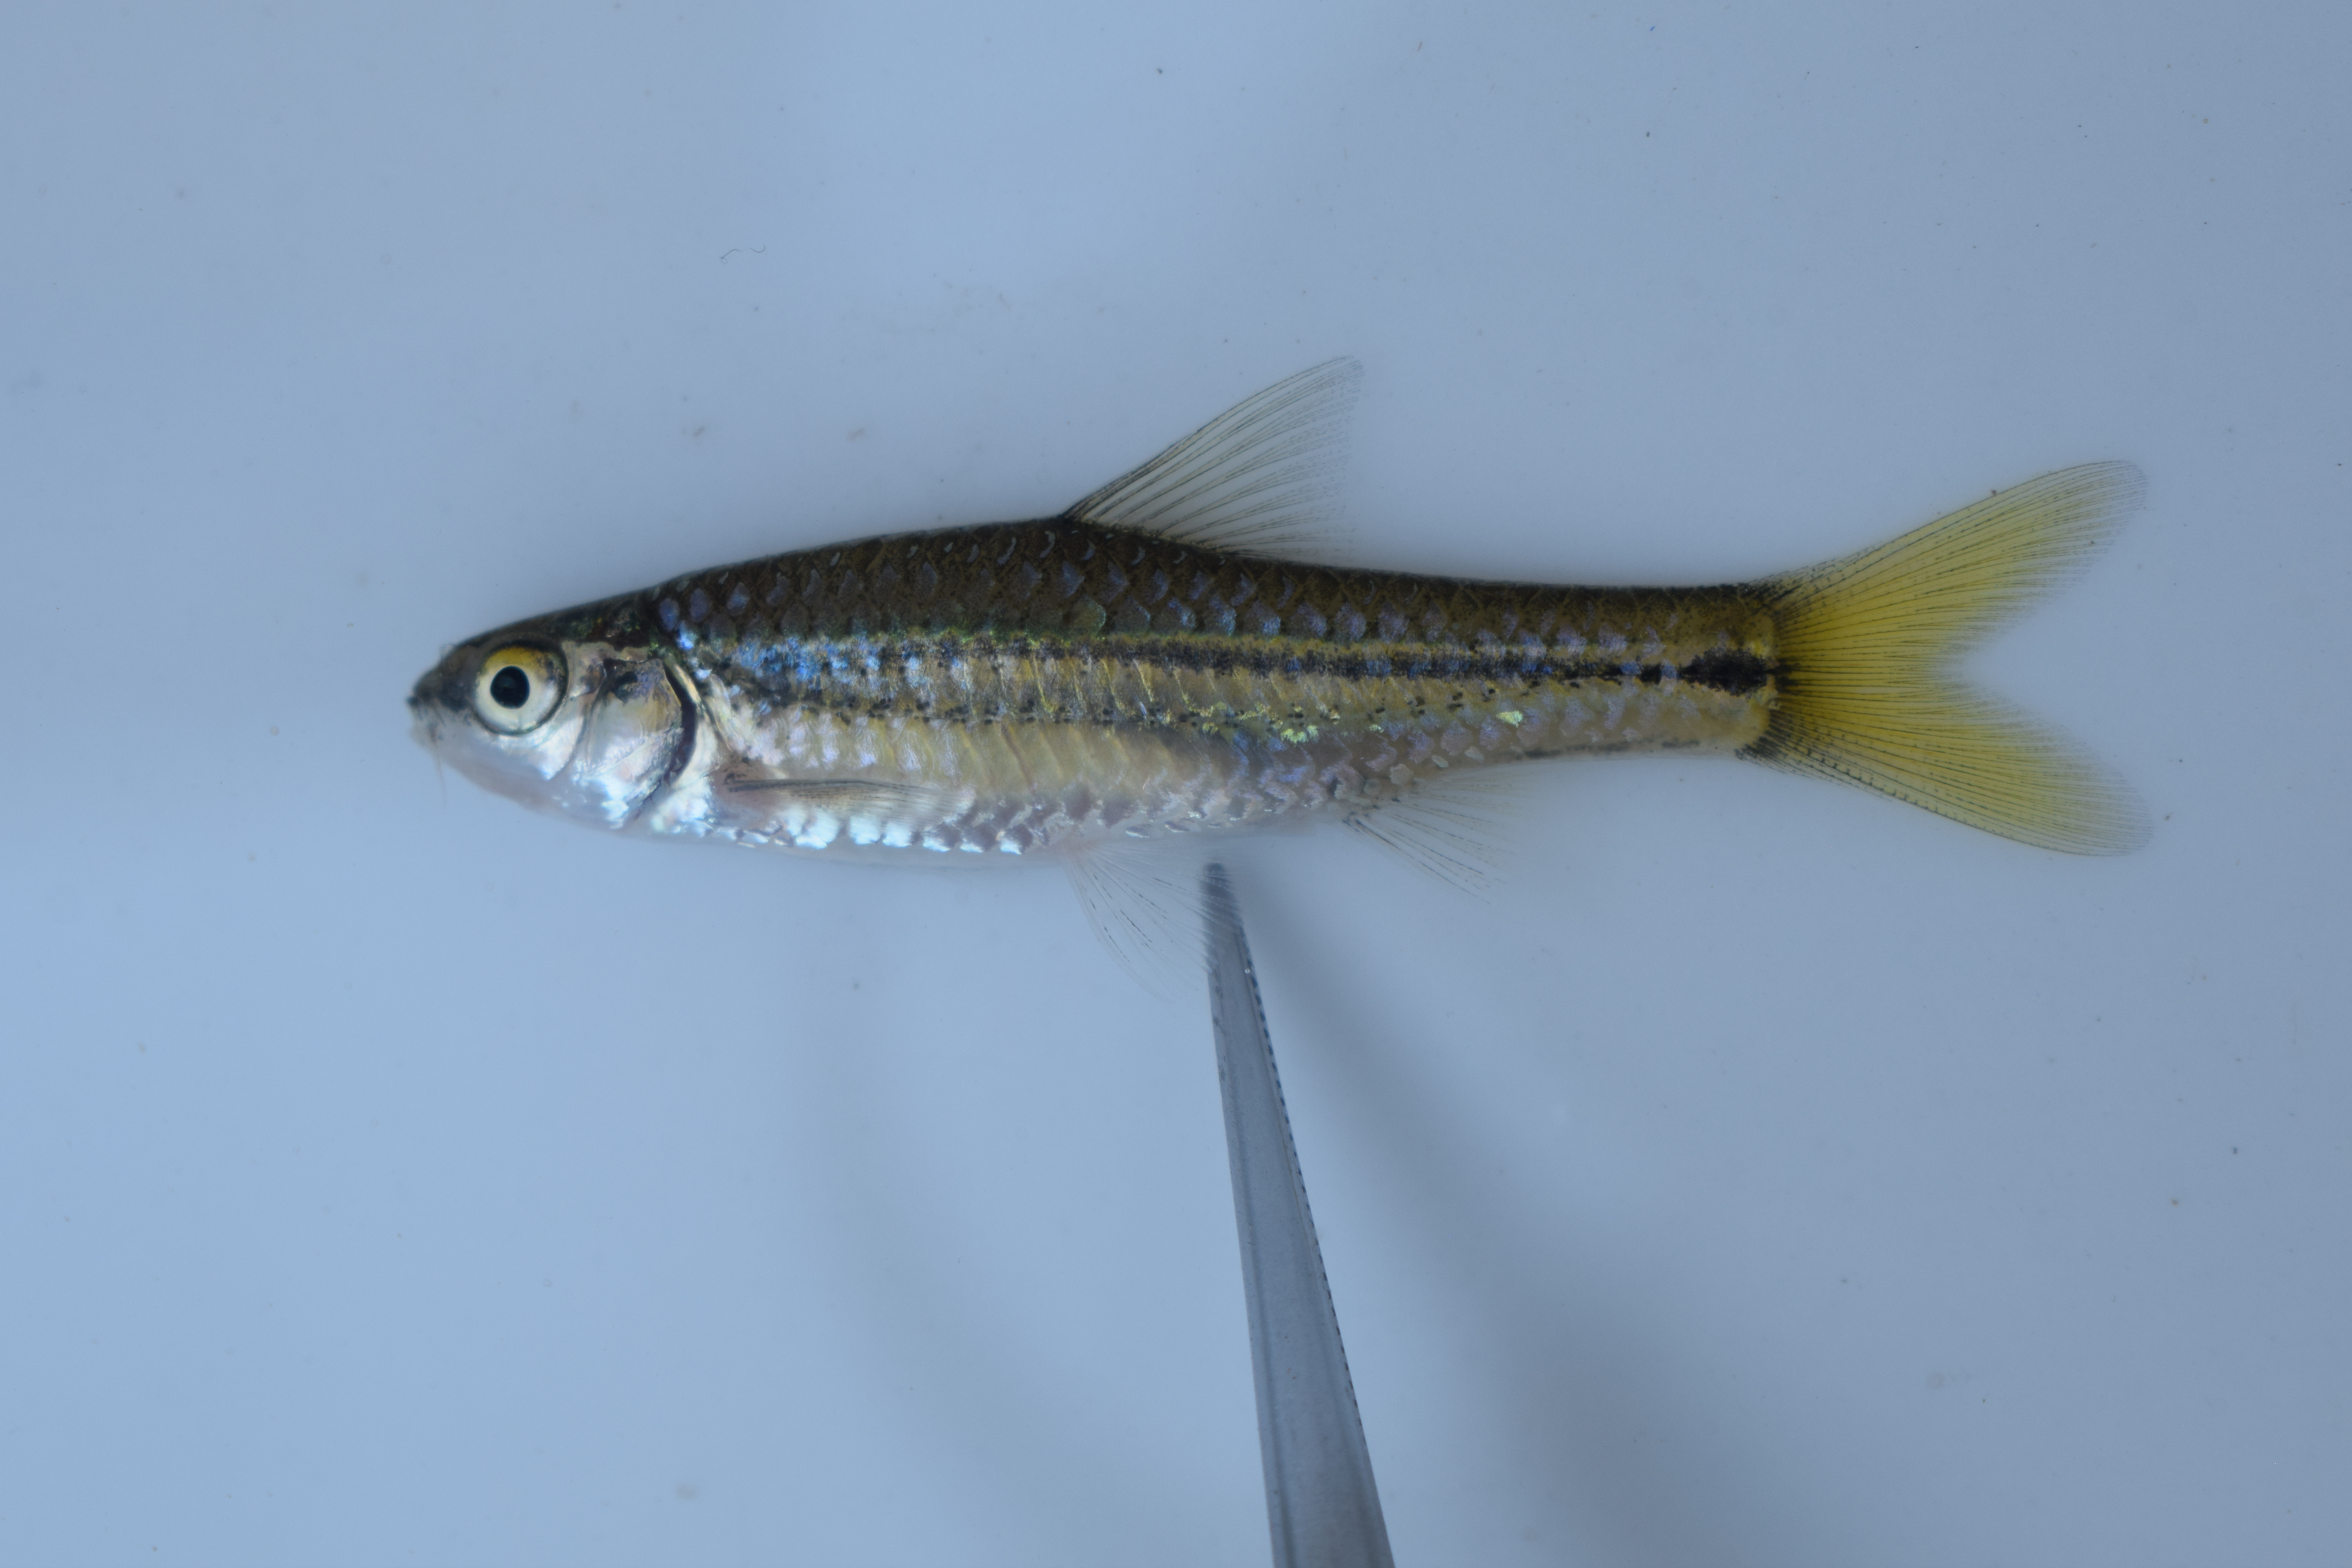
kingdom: Animalia
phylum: Chordata
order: Cypriniformes
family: Cyprinidae
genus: Enteromius
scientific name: Enteromius
